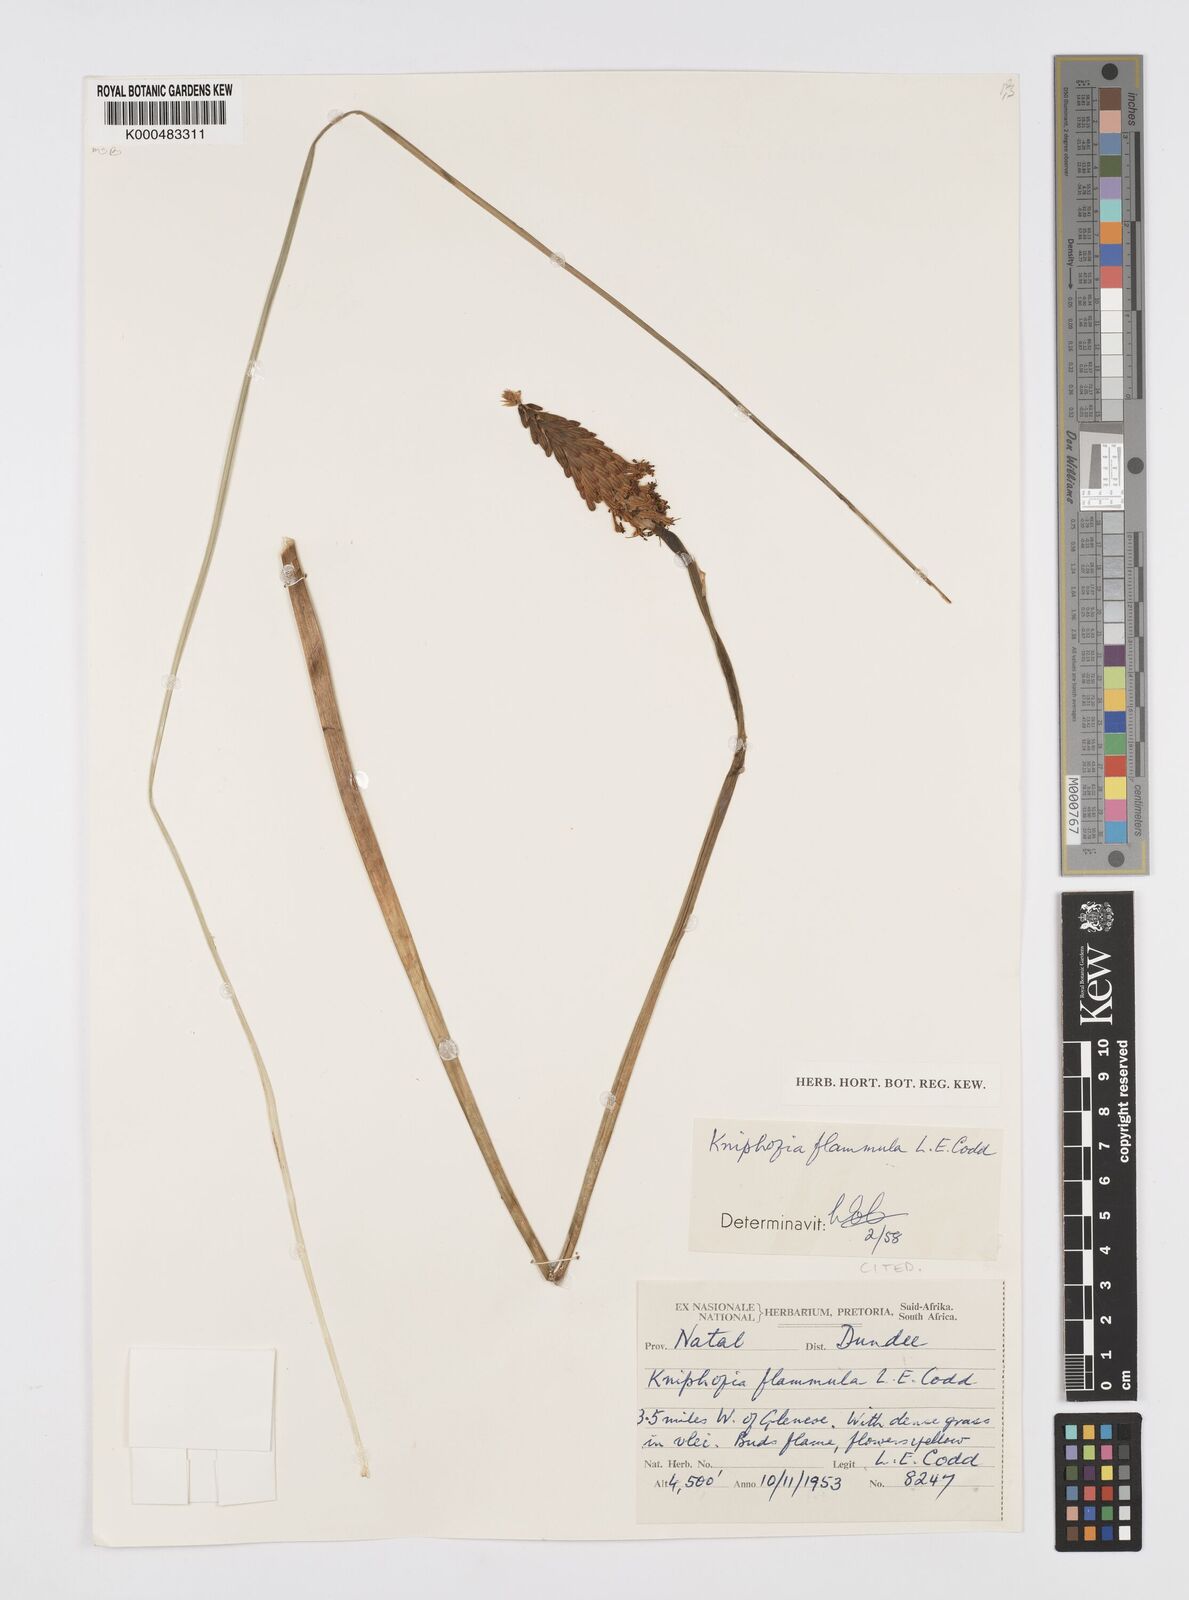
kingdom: Plantae
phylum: Tracheophyta
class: Liliopsida
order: Asparagales
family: Asphodelaceae
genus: Kniphofia
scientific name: Kniphofia flammula
